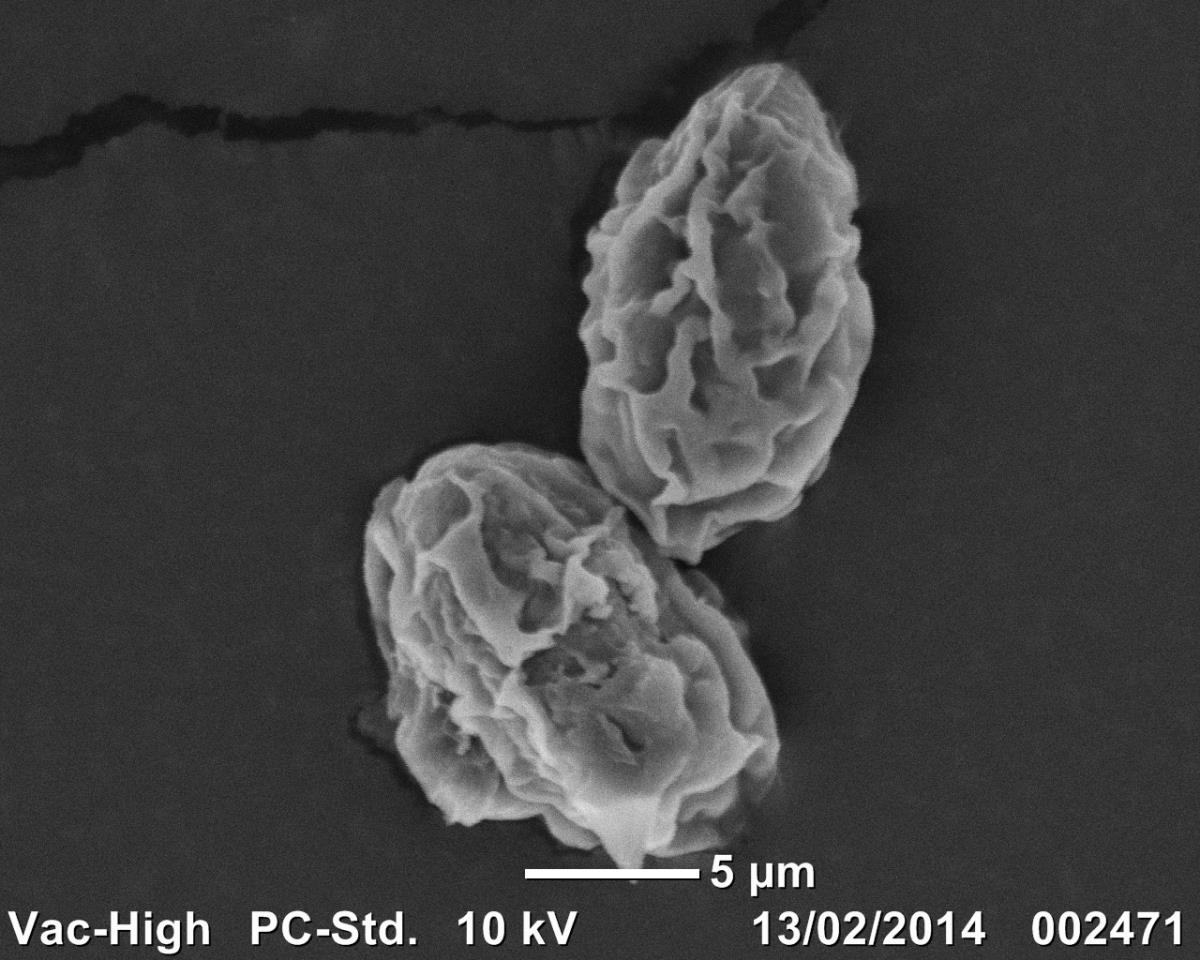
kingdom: Fungi
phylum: Basidiomycota
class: Pucciniomycetes
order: Pucciniales
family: Pucciniaceae
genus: Uromyces
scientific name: Uromyces waipoua
